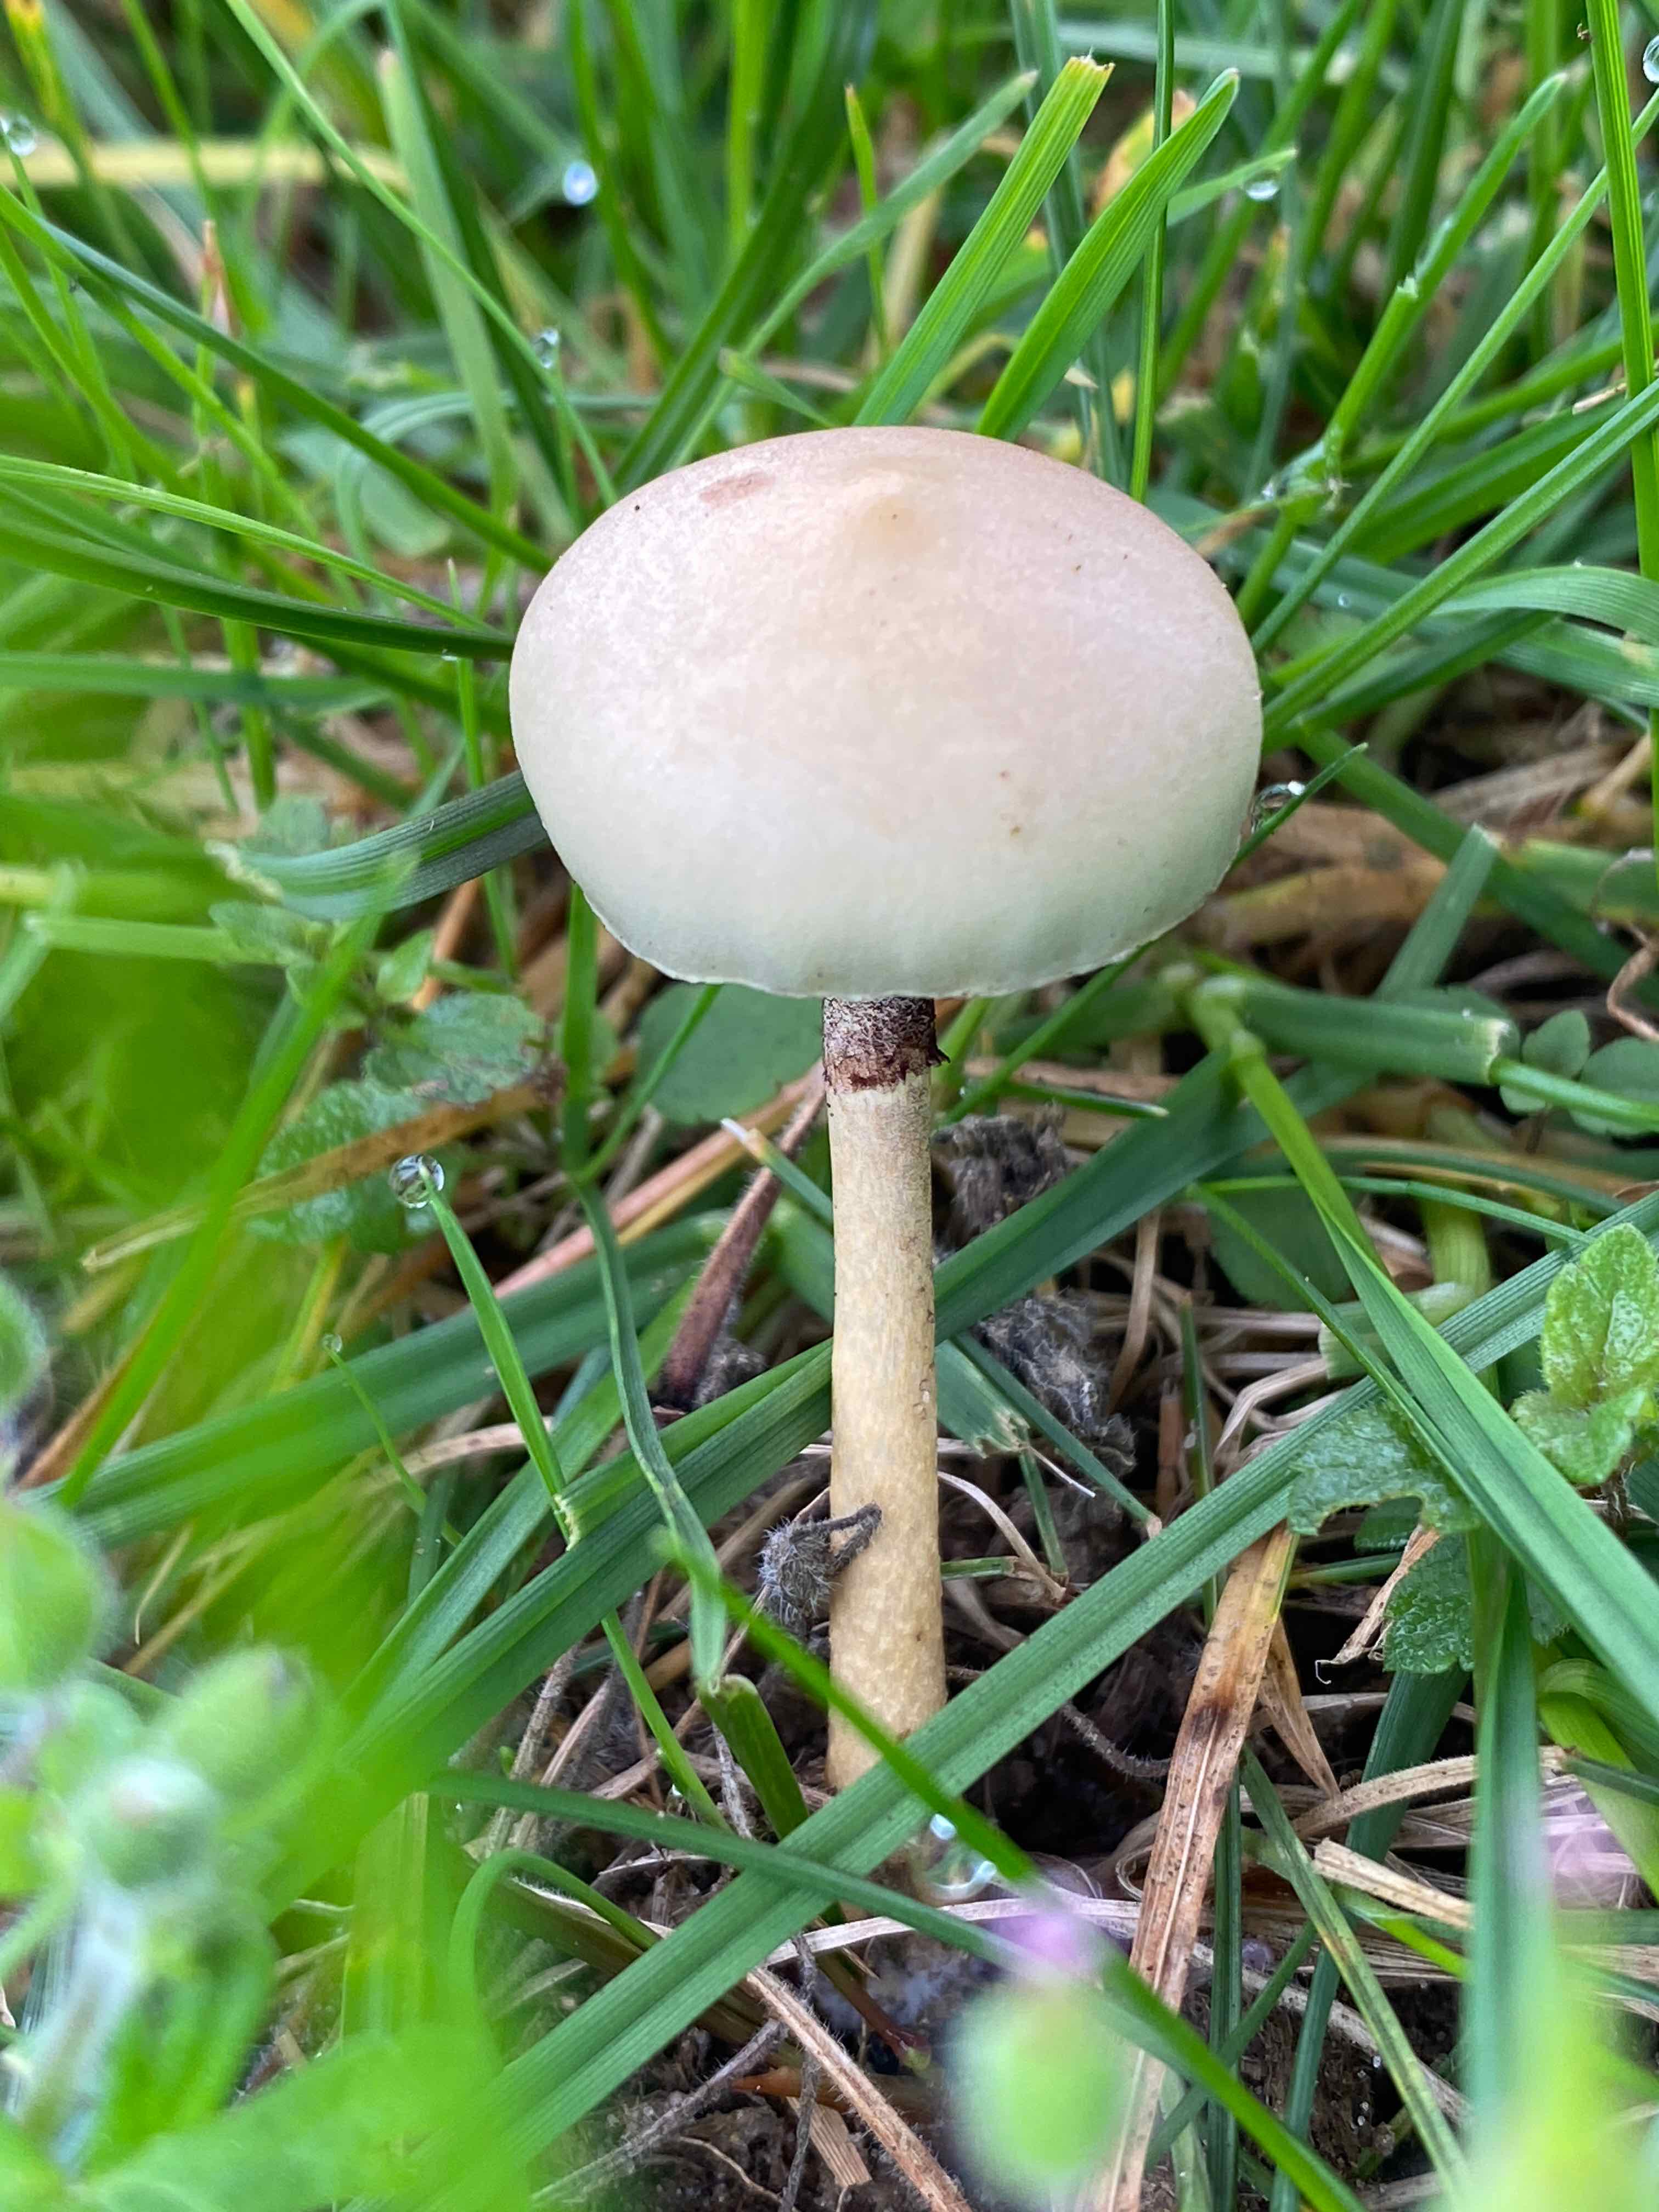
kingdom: Fungi
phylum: Basidiomycota
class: Agaricomycetes
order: Agaricales
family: Strophariaceae
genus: Protostropharia
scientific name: Protostropharia semiglobata
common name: halvkugleformet bredblad
